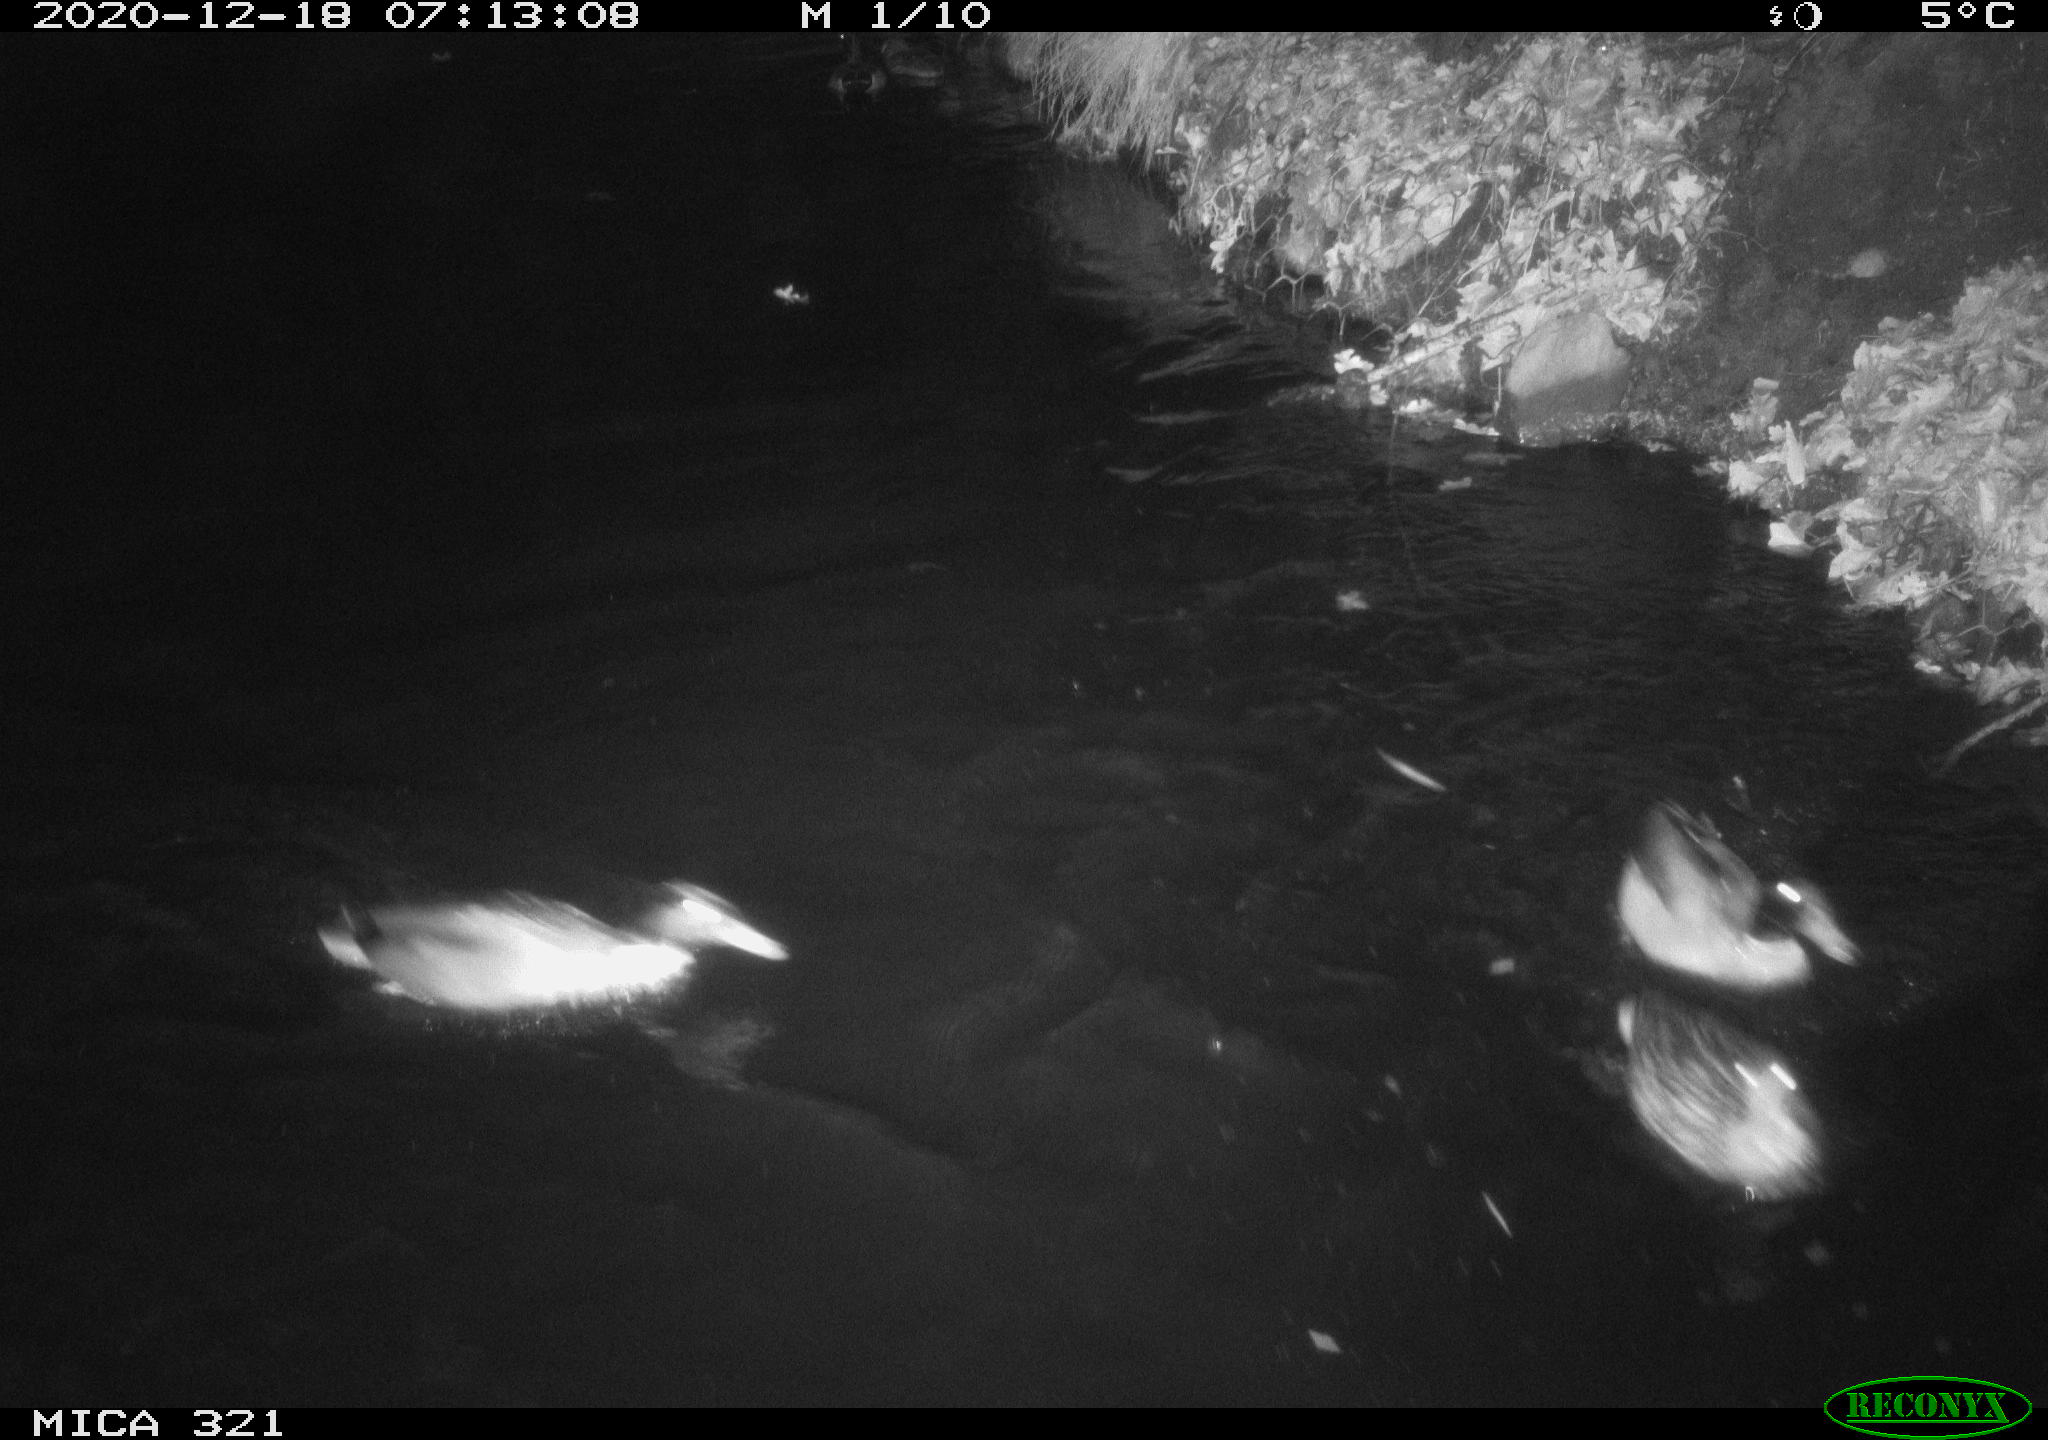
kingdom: Animalia
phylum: Chordata
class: Aves
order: Anseriformes
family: Anatidae
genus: Anas
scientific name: Anas platyrhynchos
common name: Mallard
